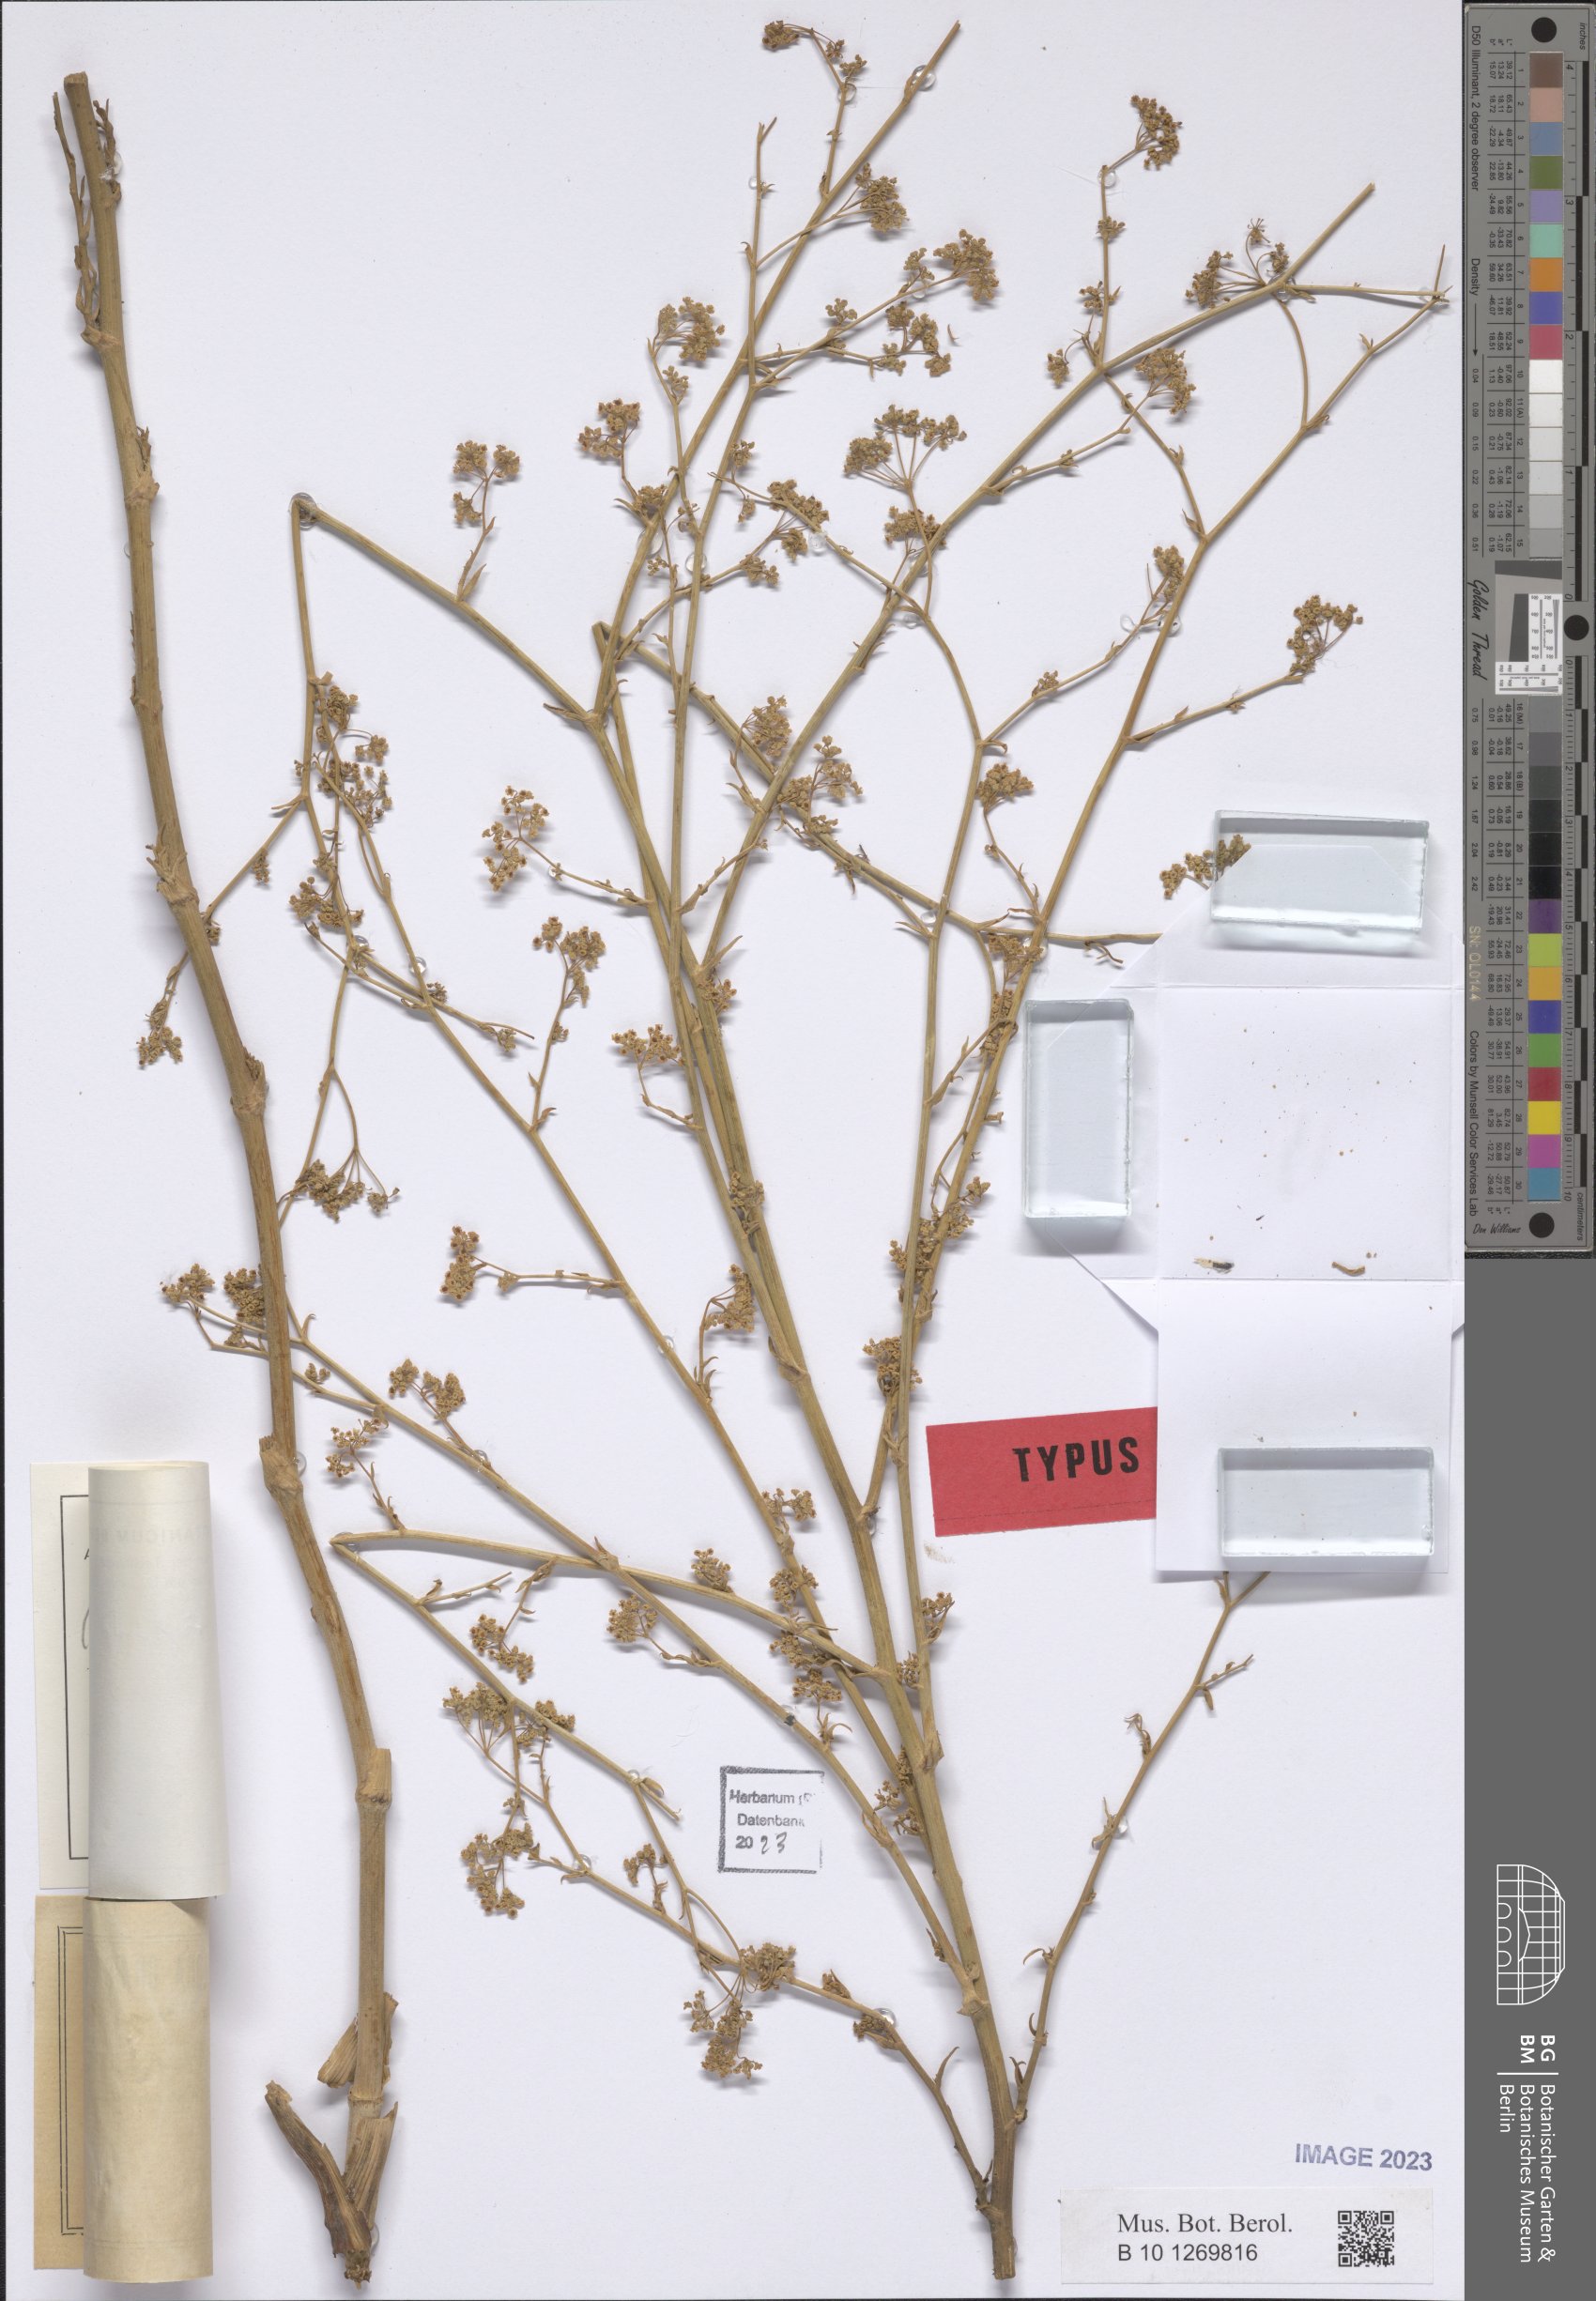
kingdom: Plantae
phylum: Tracheophyta
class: Magnoliopsida
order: Apiales
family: Apiaceae
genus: Pimpinella
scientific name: Pimpinella rigidula
